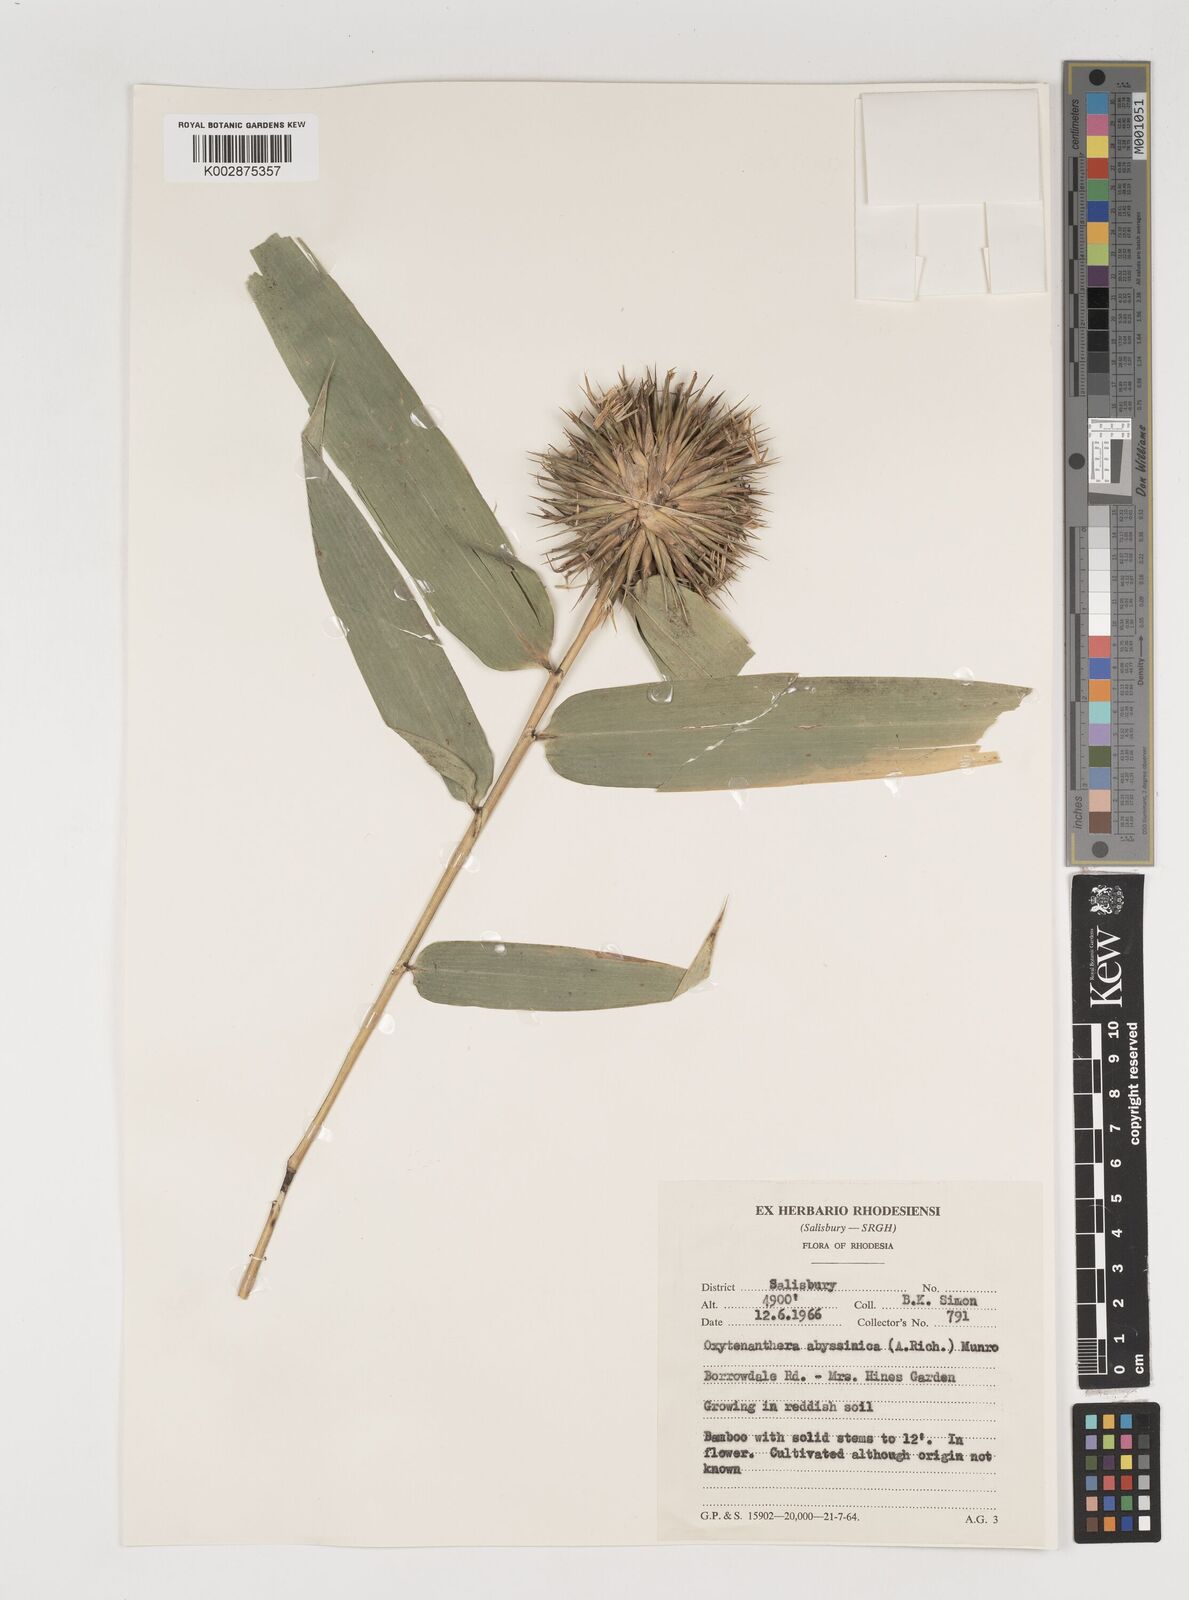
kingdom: Plantae
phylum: Tracheophyta
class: Liliopsida
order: Poales
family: Poaceae
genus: Oxytenanthera
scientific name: Oxytenanthera abyssinica
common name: Wine bamboo
